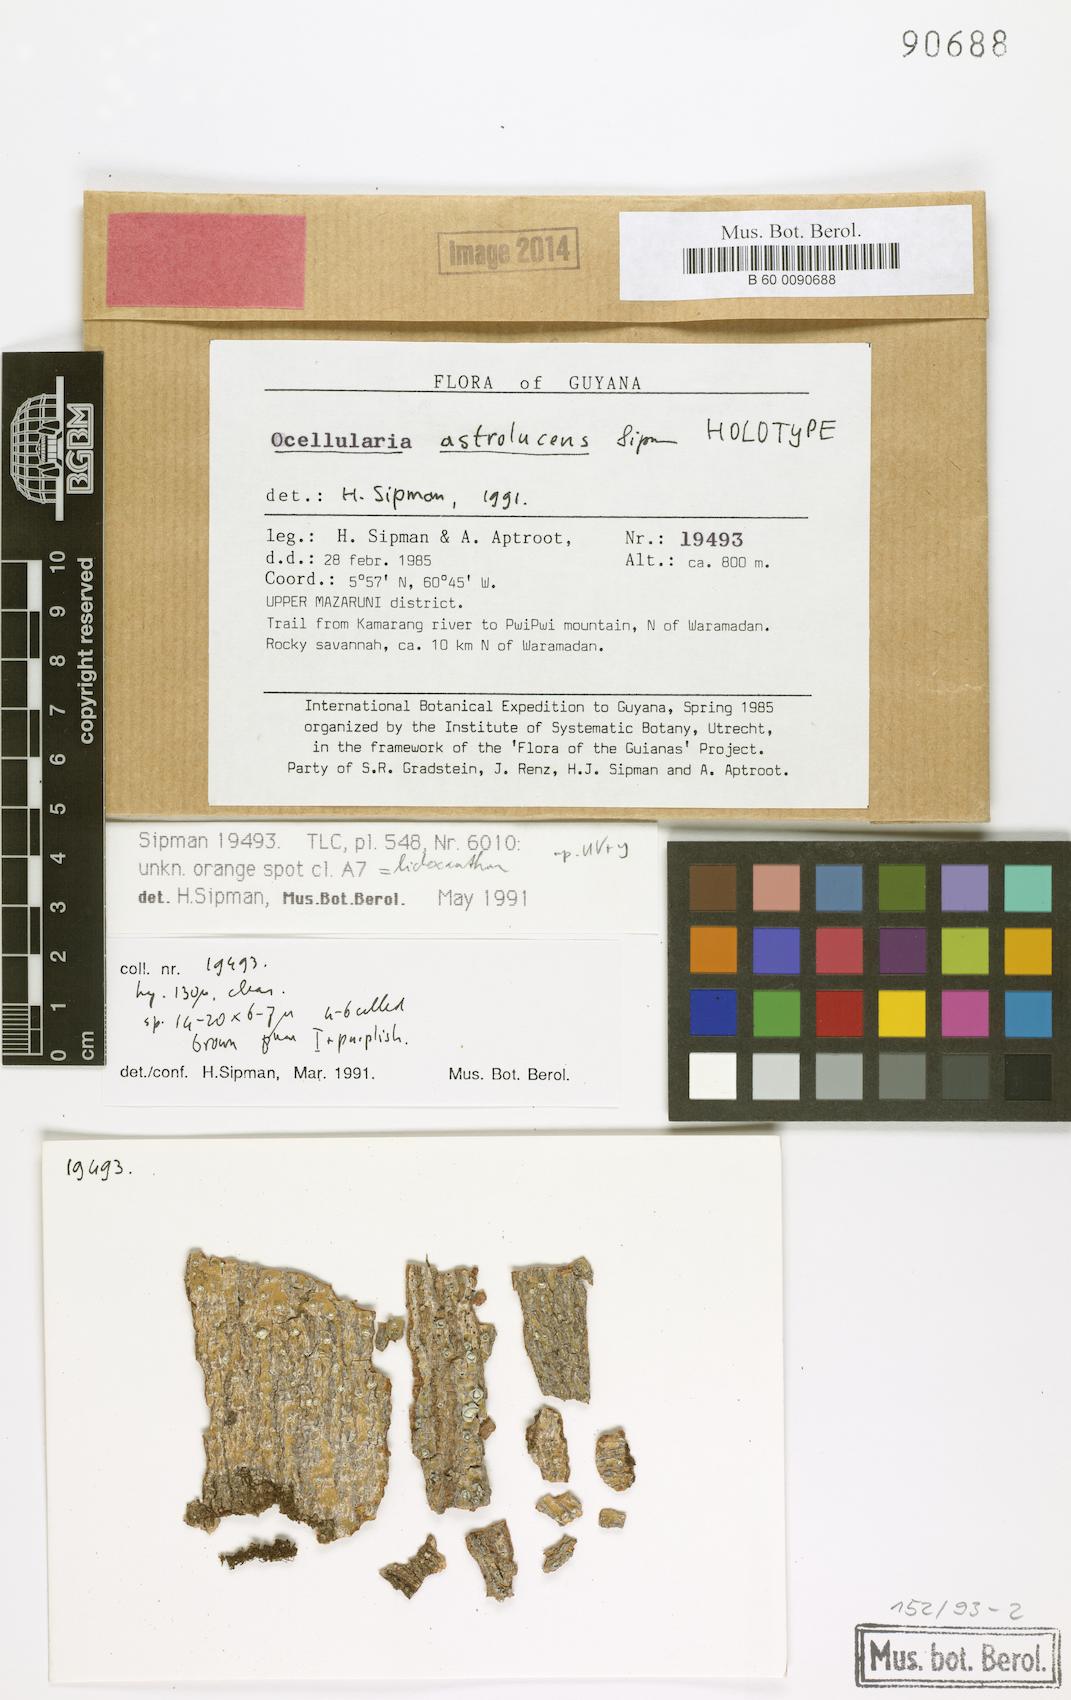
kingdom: Fungi
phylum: Ascomycota
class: Lecanoromycetes
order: Ostropales
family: Graphidaceae
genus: Melanotrema
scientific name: Melanotrema astrolucens
